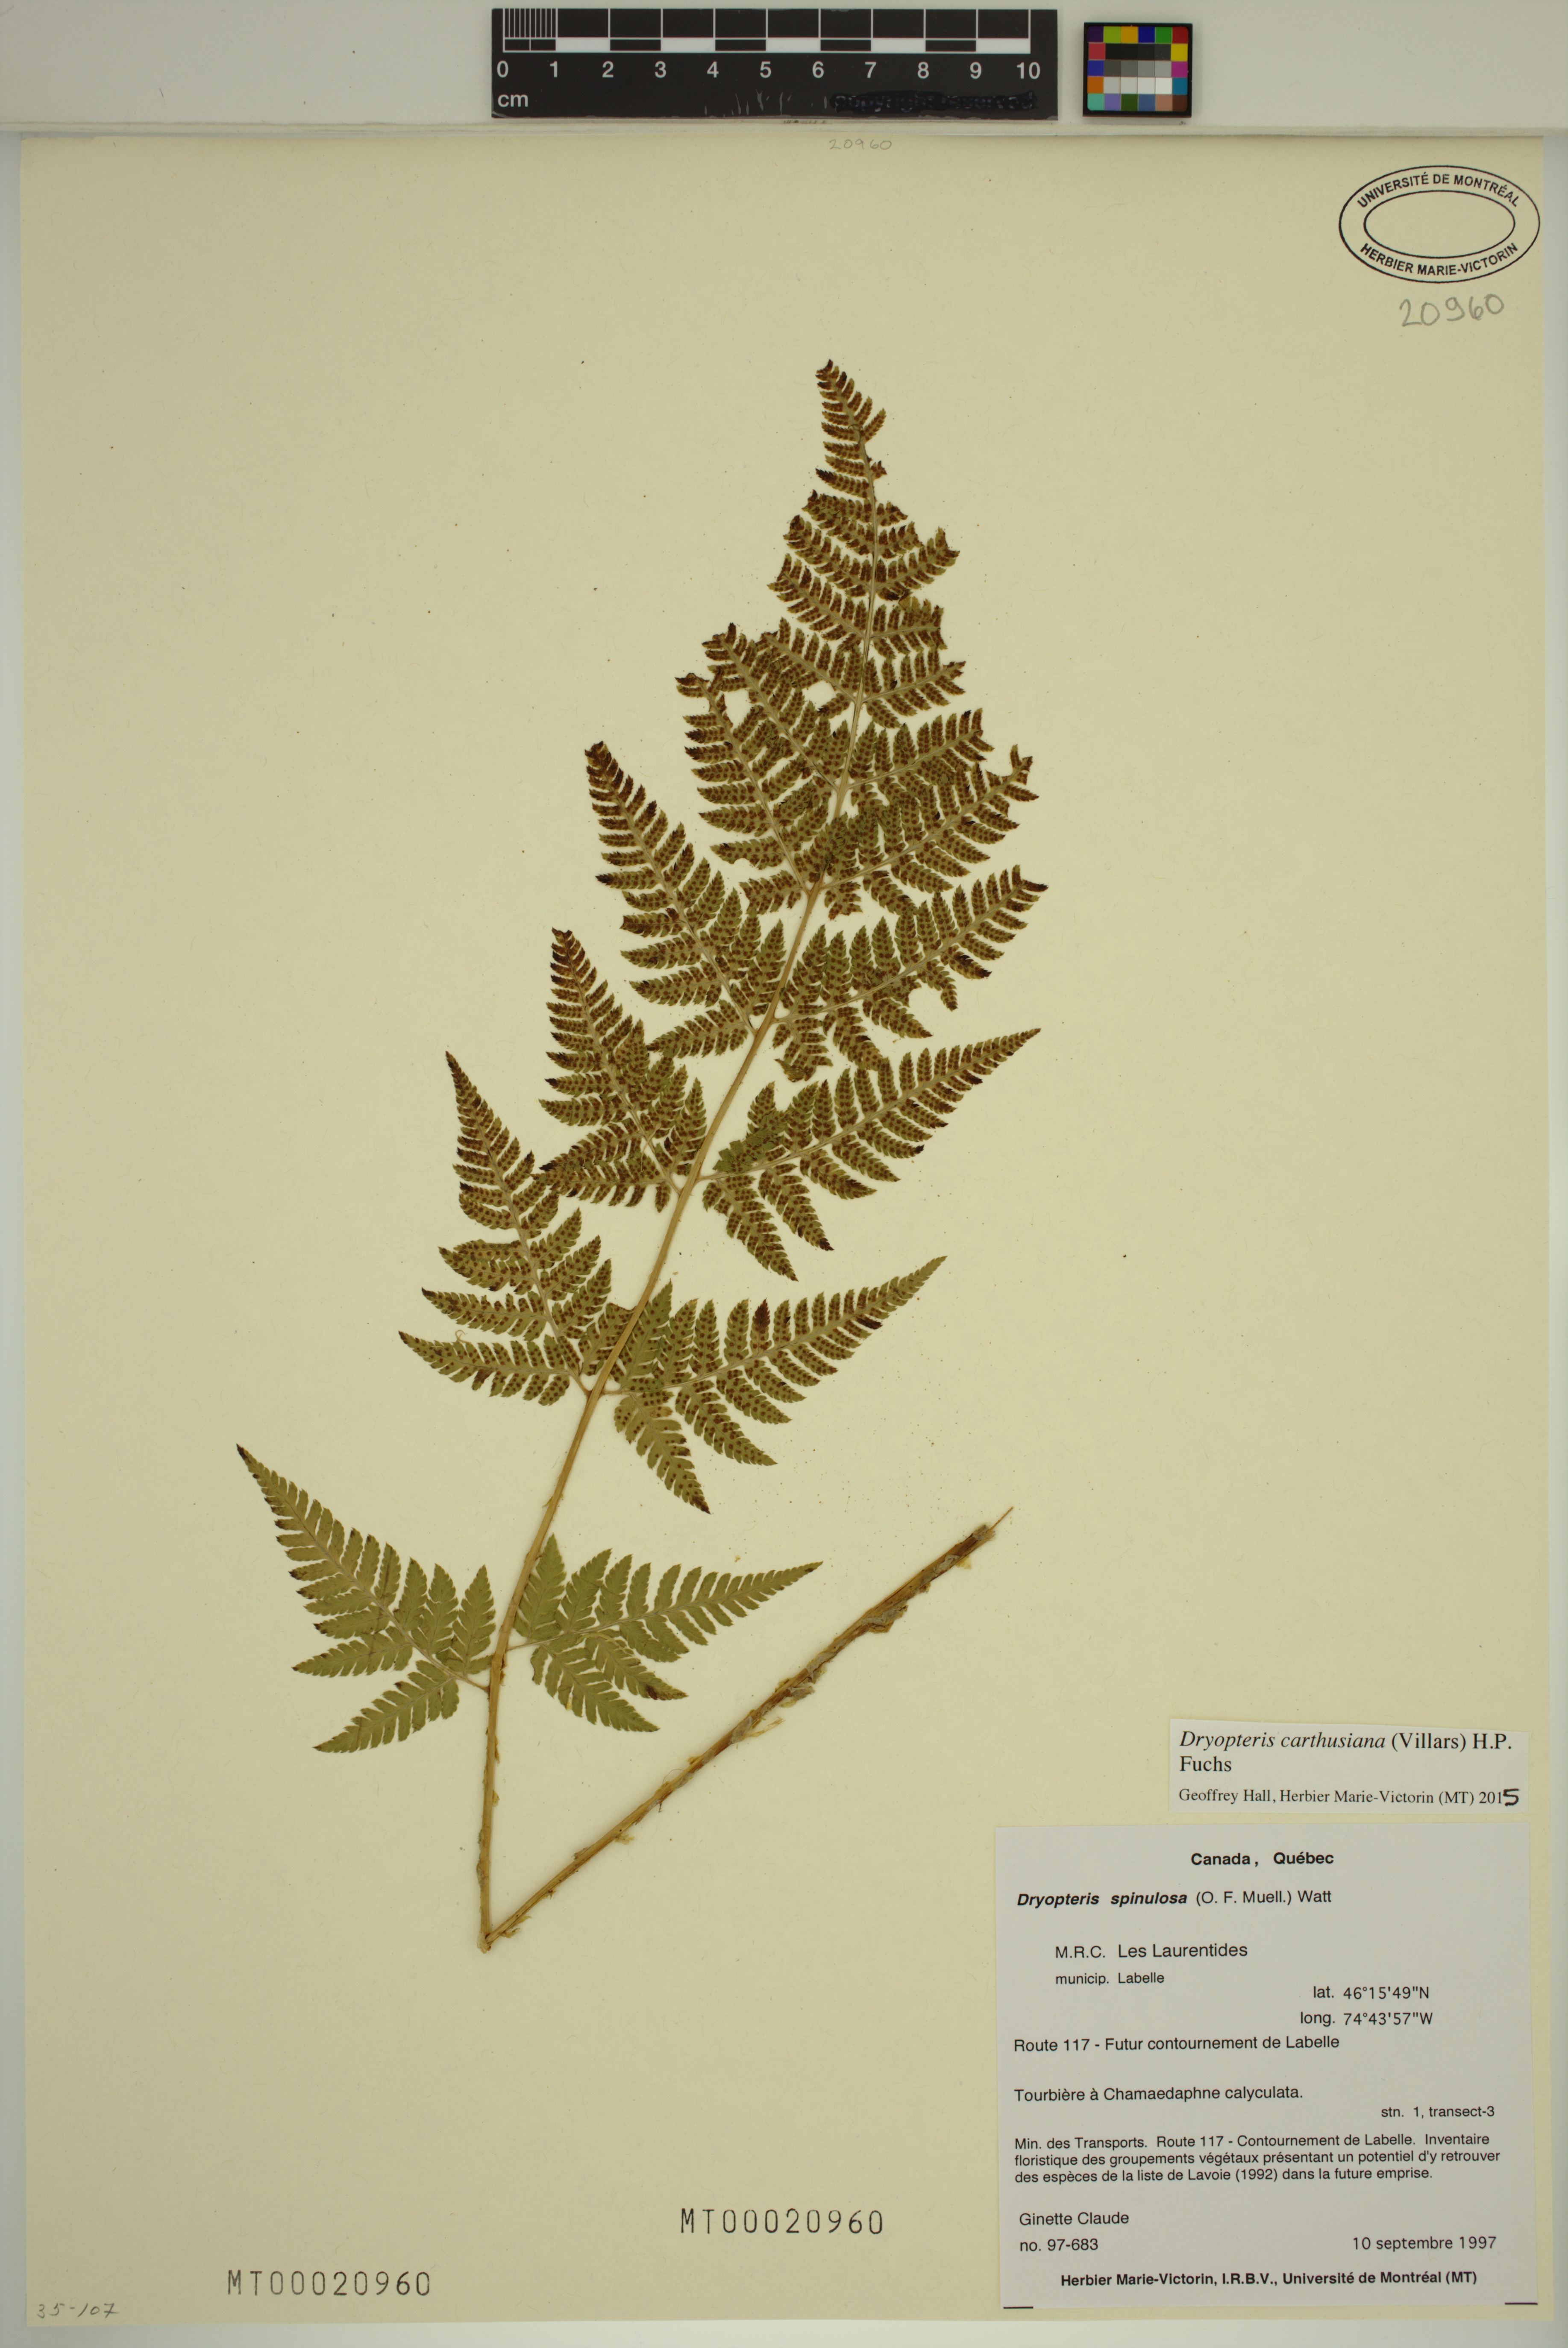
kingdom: Plantae
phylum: Tracheophyta
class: Polypodiopsida
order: Polypodiales
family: Dryopteridaceae
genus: Dryopteris
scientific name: Dryopteris carthusiana
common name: Narrow buckler-fern
